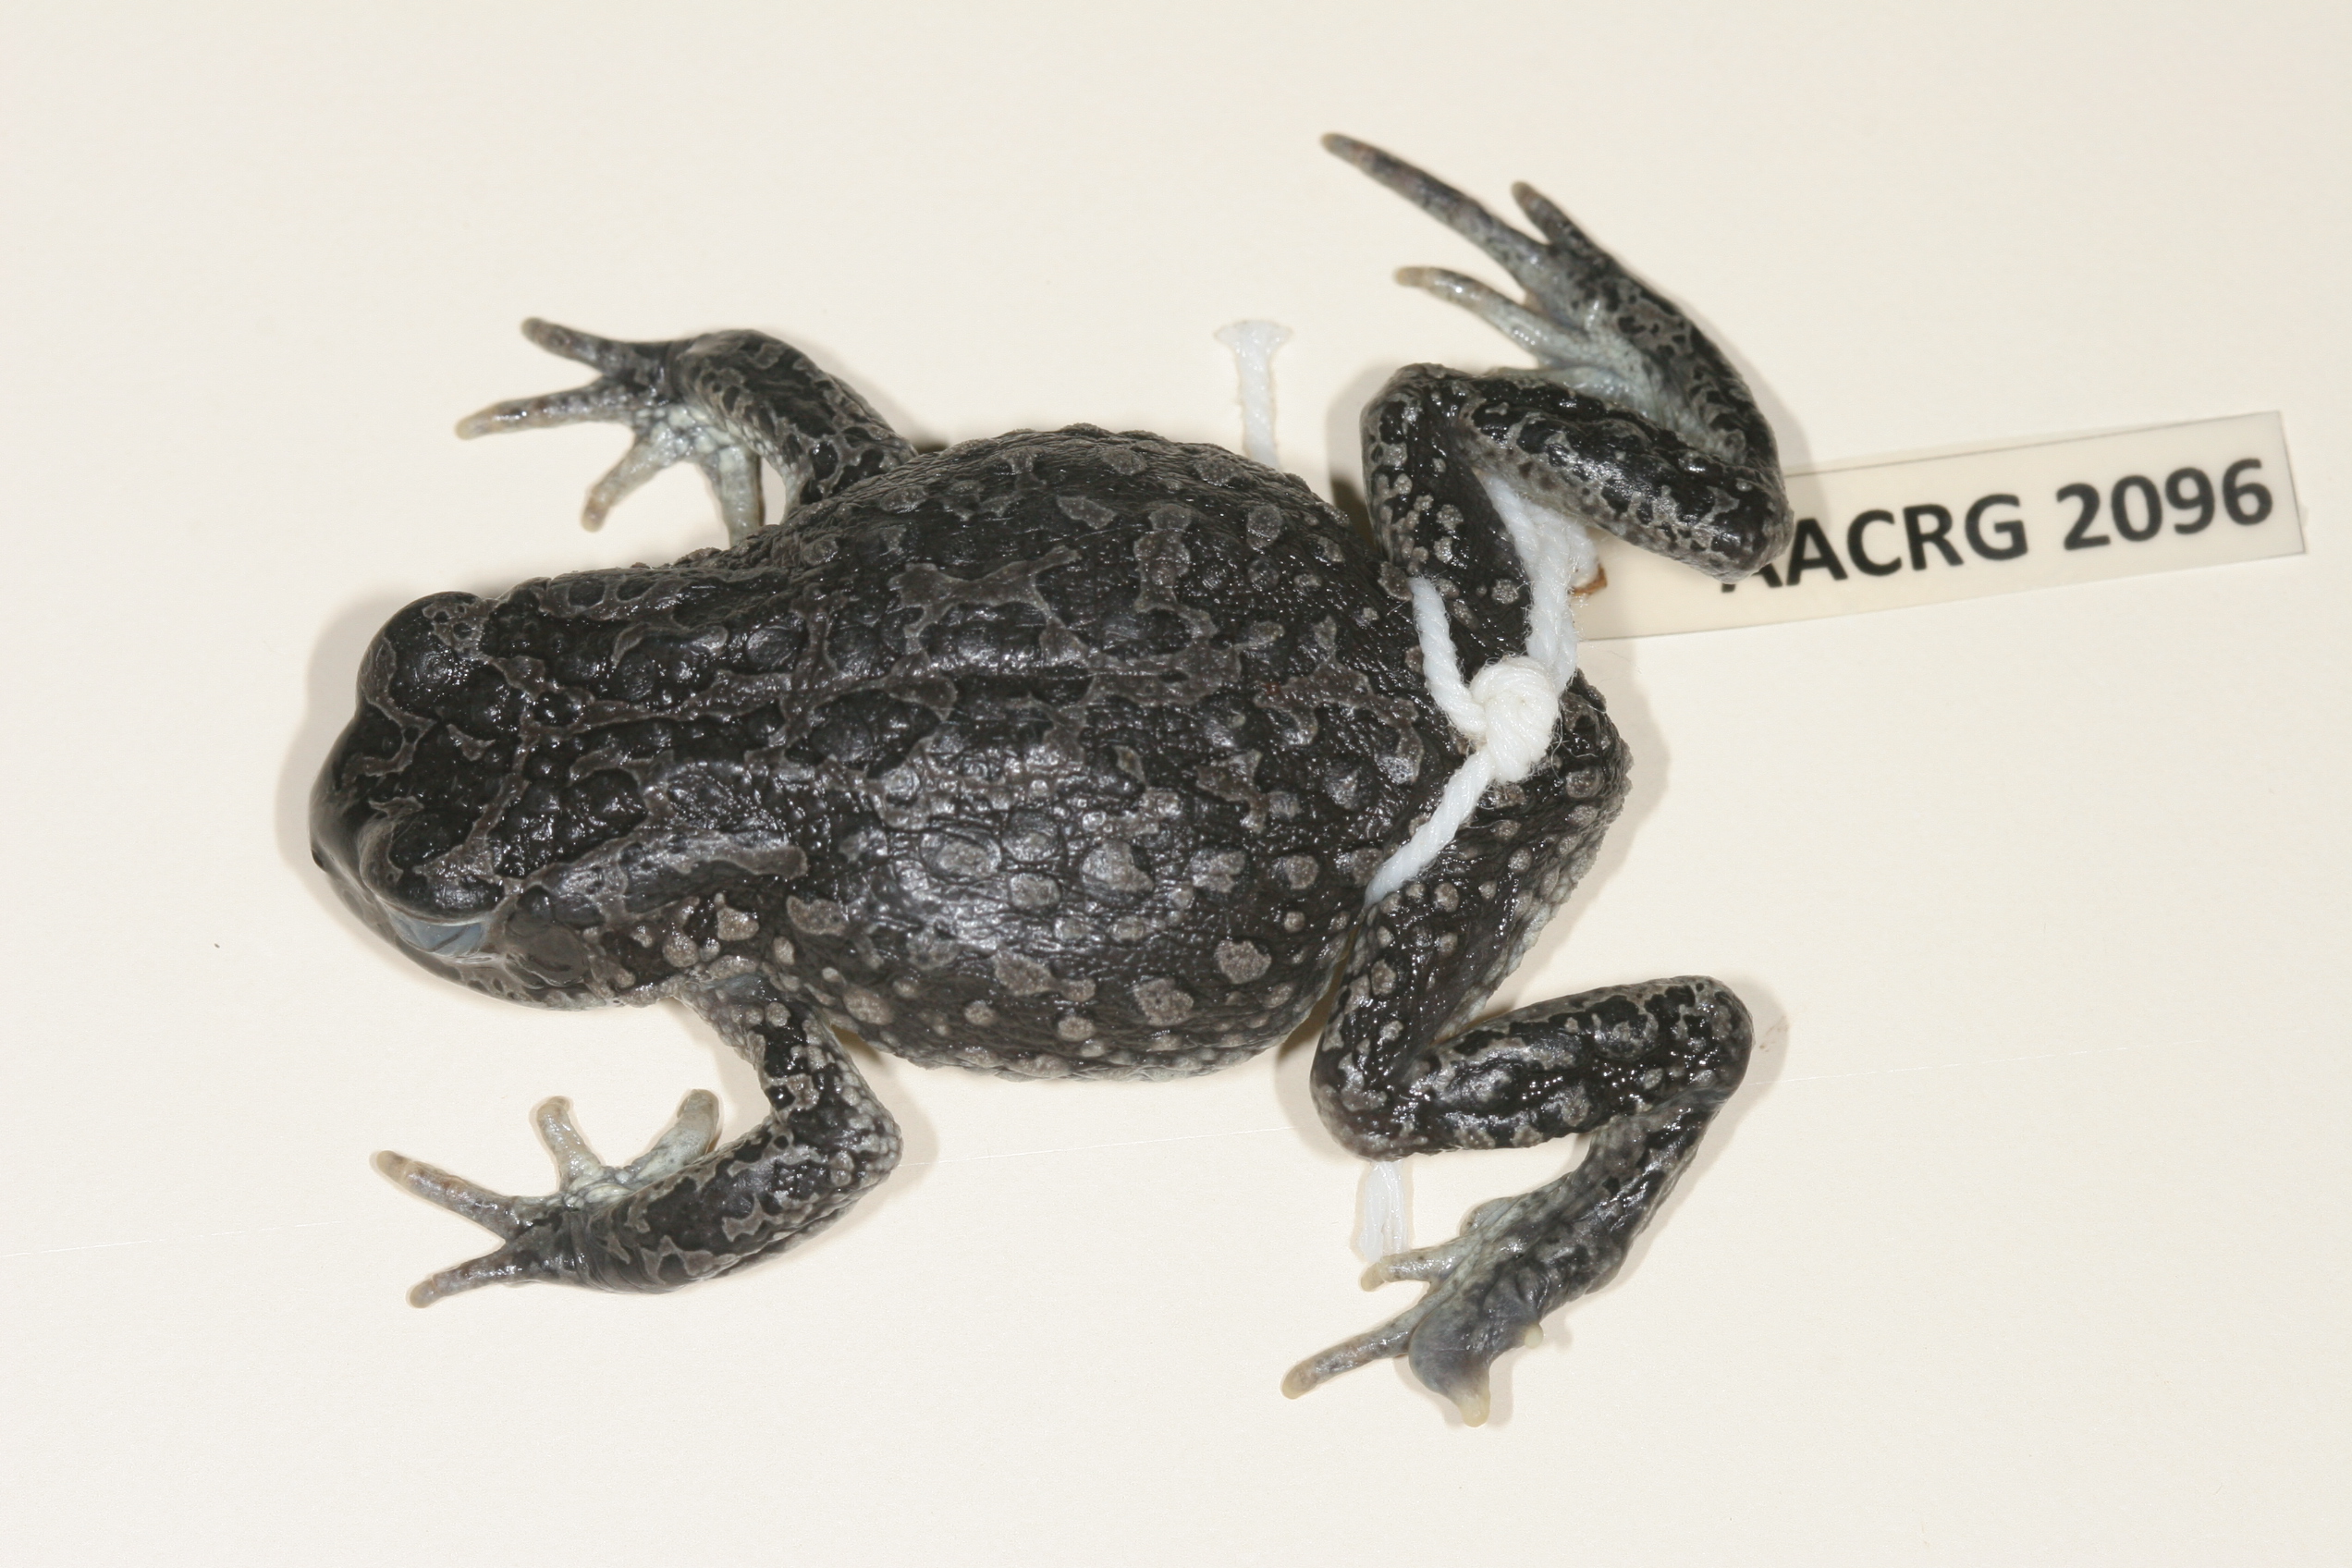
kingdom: Animalia
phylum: Chordata
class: Amphibia
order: Anura
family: Bufonidae
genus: Vandijkophrynus
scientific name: Vandijkophrynus gariepensis
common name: Gariep toad
